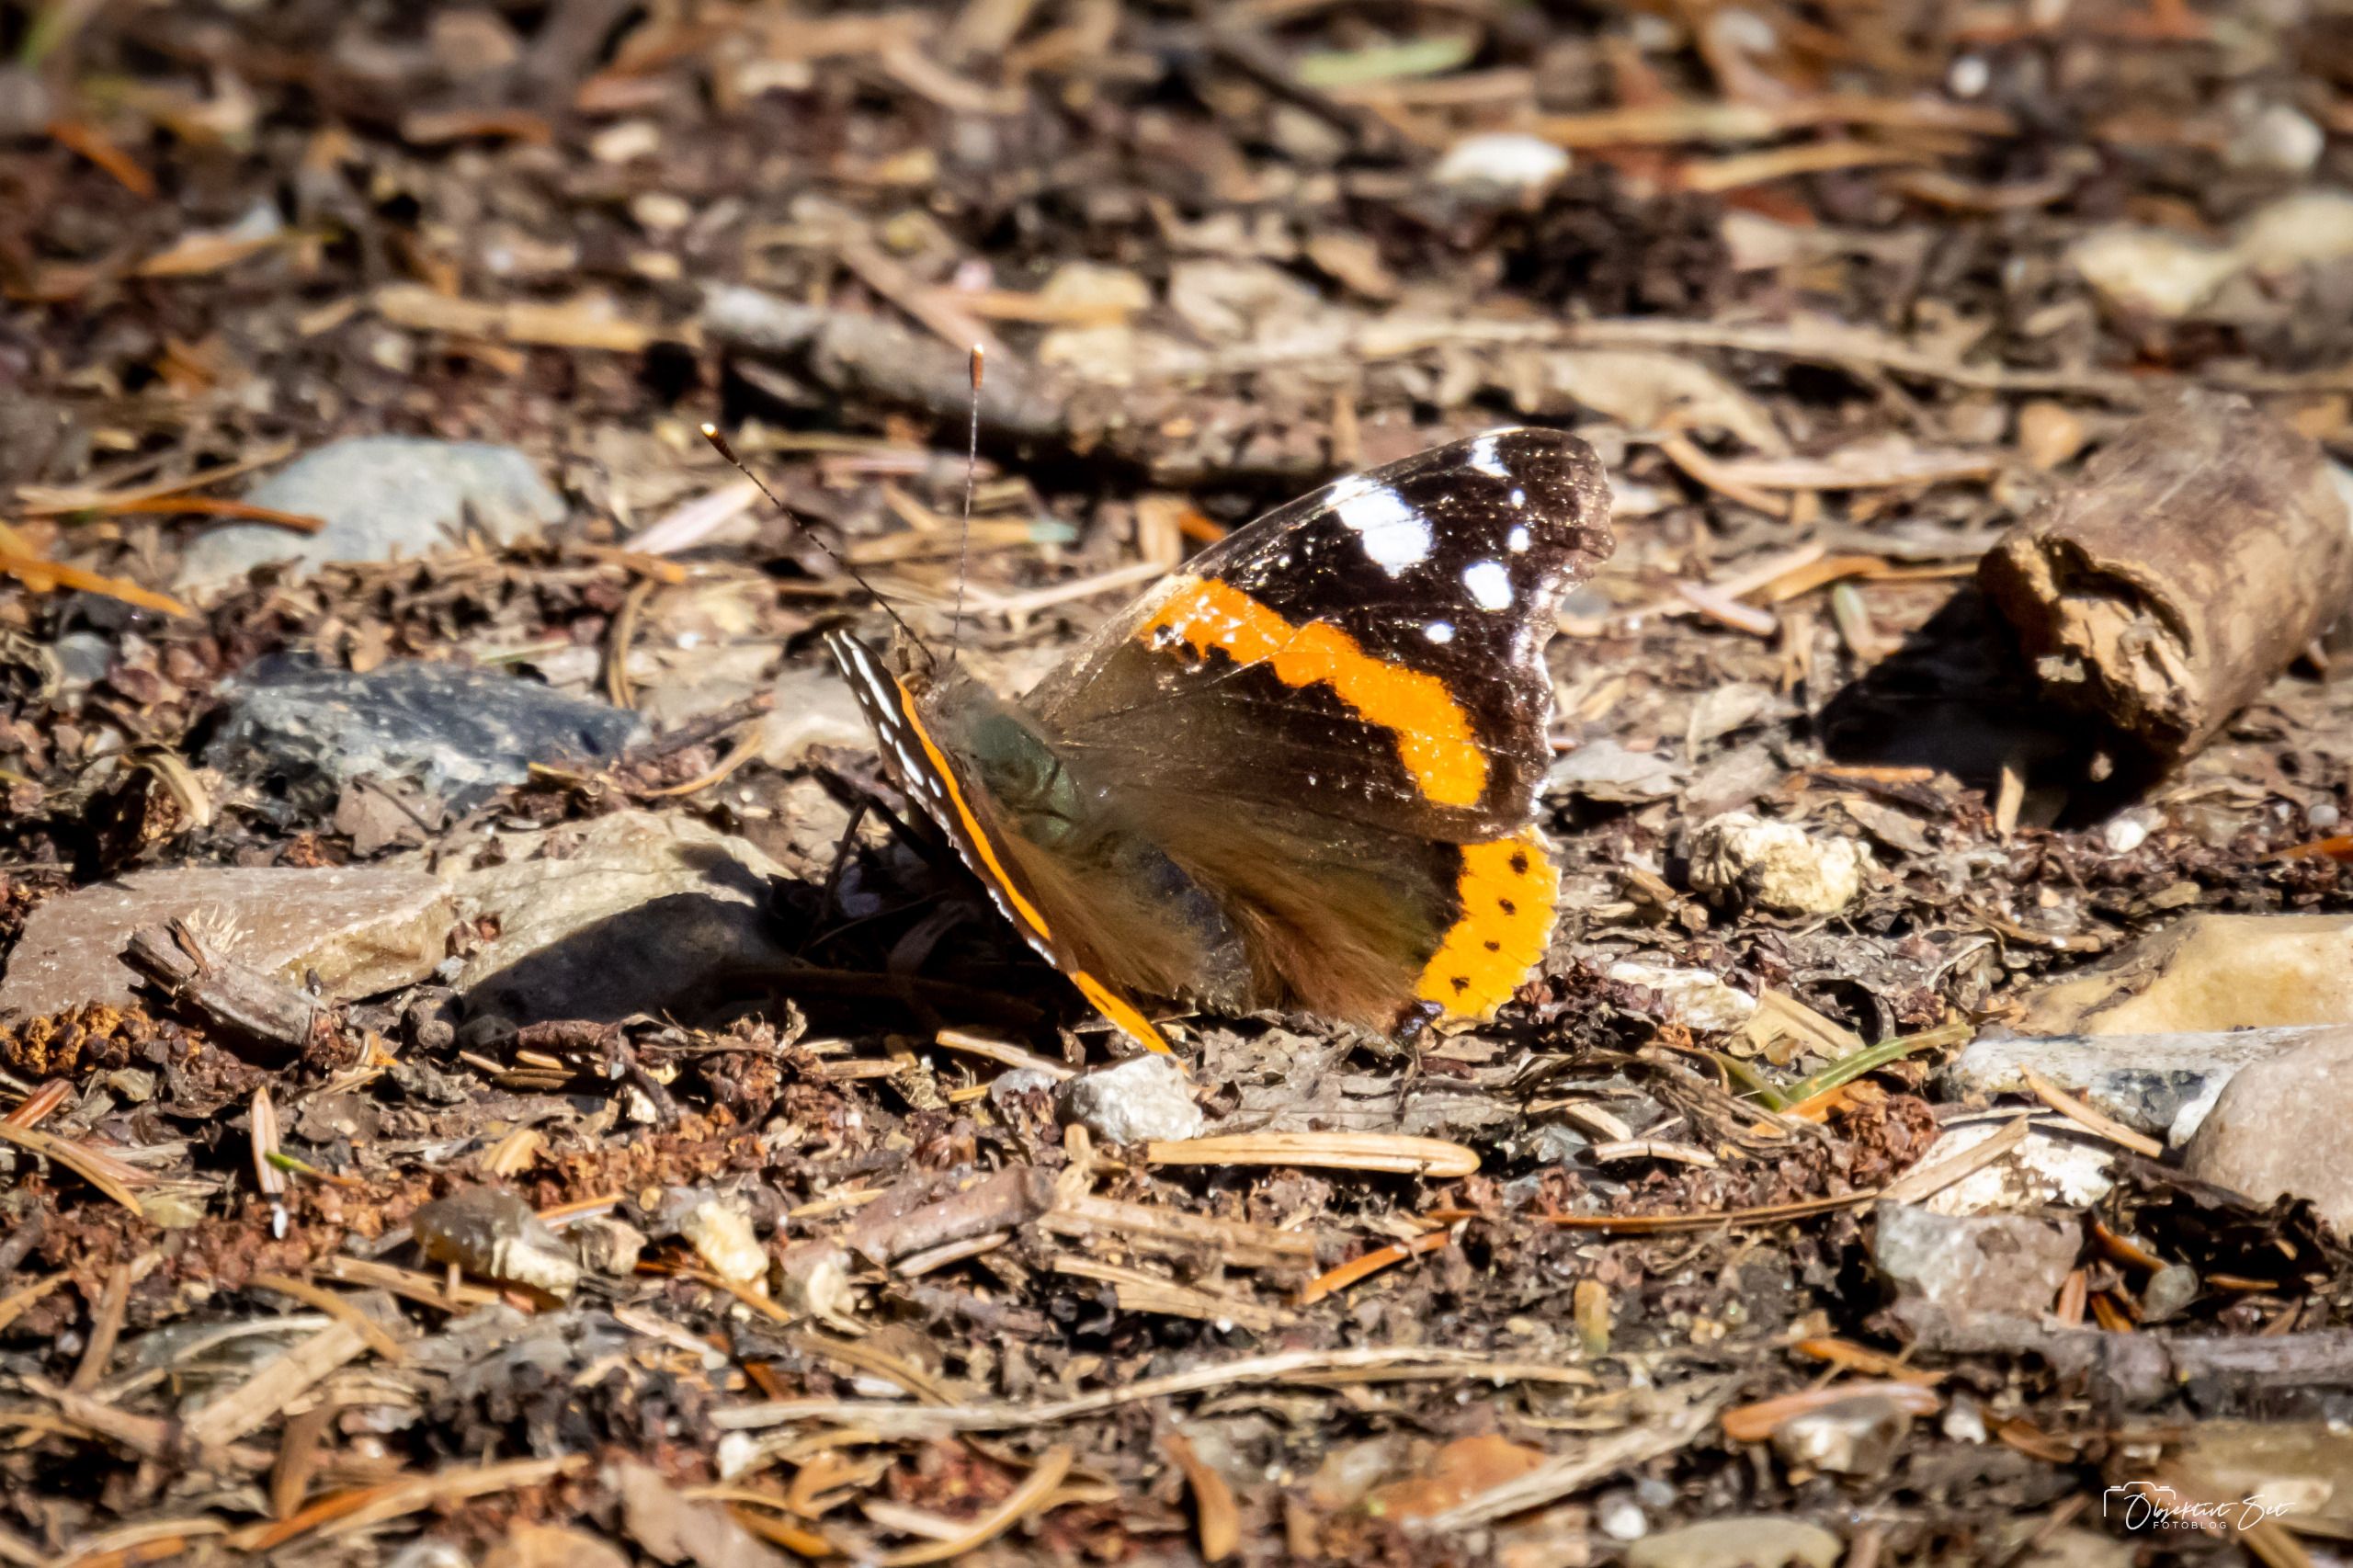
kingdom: Animalia
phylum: Arthropoda
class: Insecta
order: Lepidoptera
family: Nymphalidae
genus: Vanessa
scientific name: Vanessa atalanta
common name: Admiral
